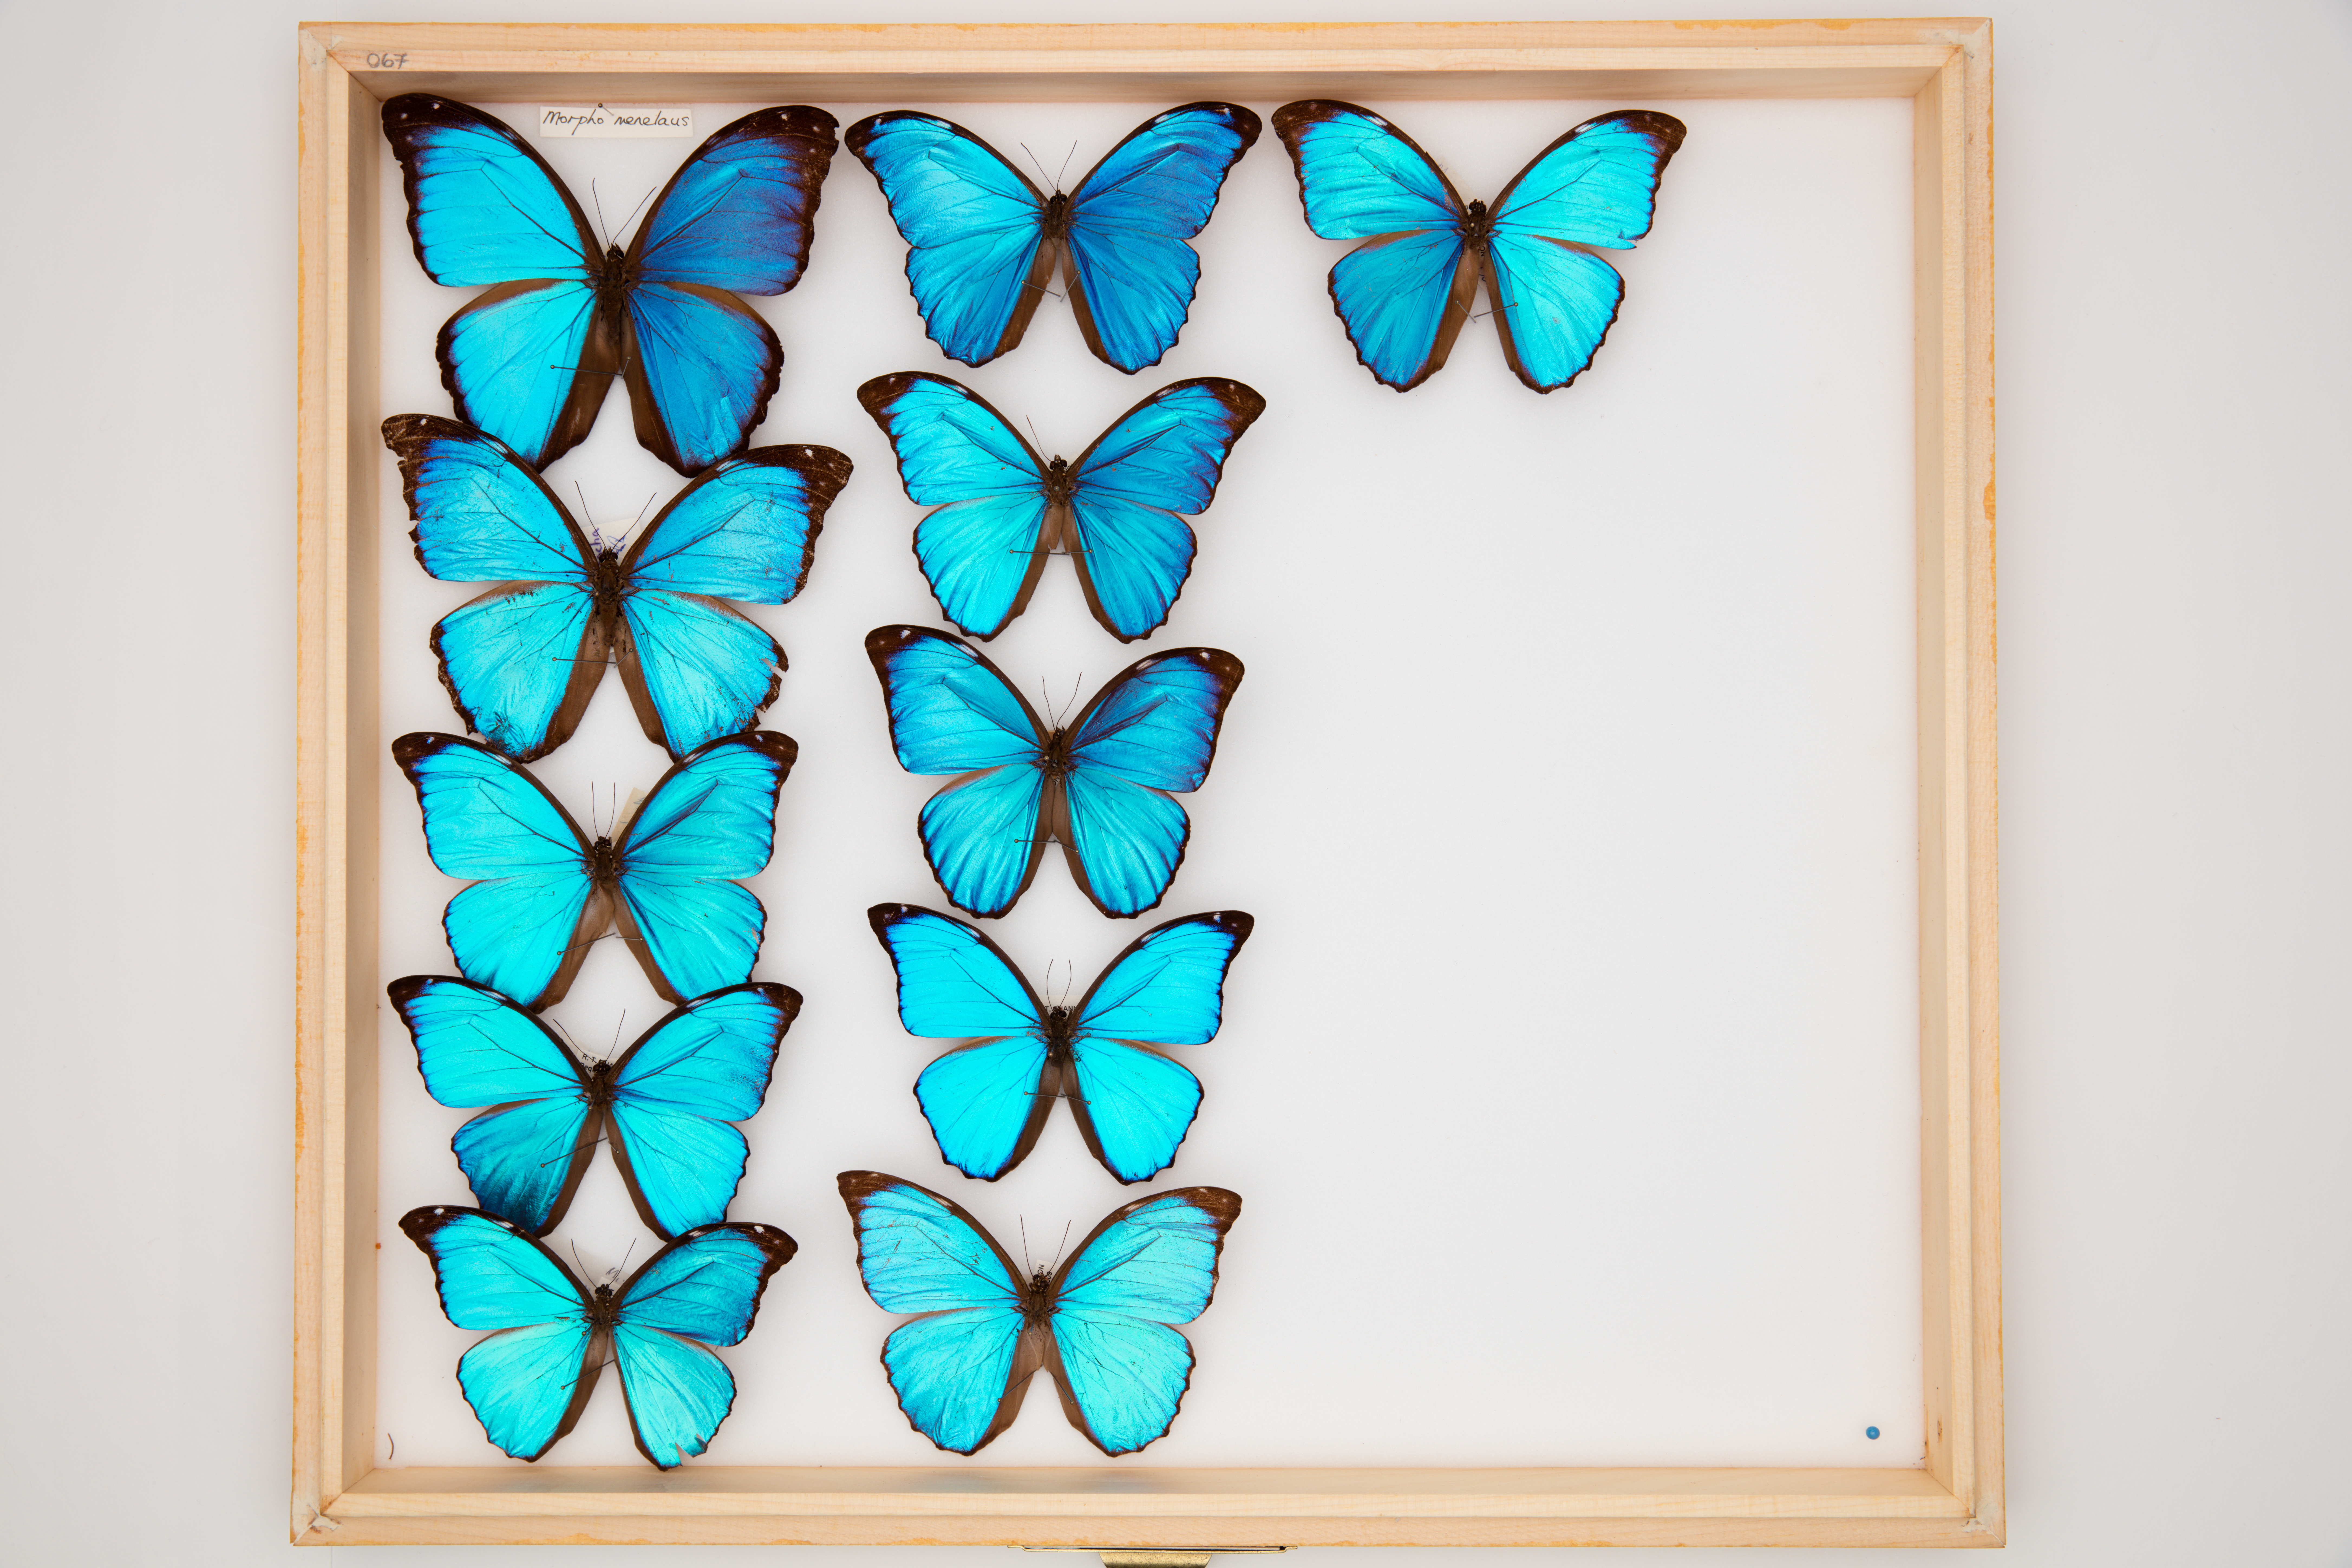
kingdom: Animalia
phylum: Arthropoda
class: Insecta
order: Lepidoptera
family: Nymphalidae
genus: Morpho
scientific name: Morpho menelaus
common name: Menelaus morpho
